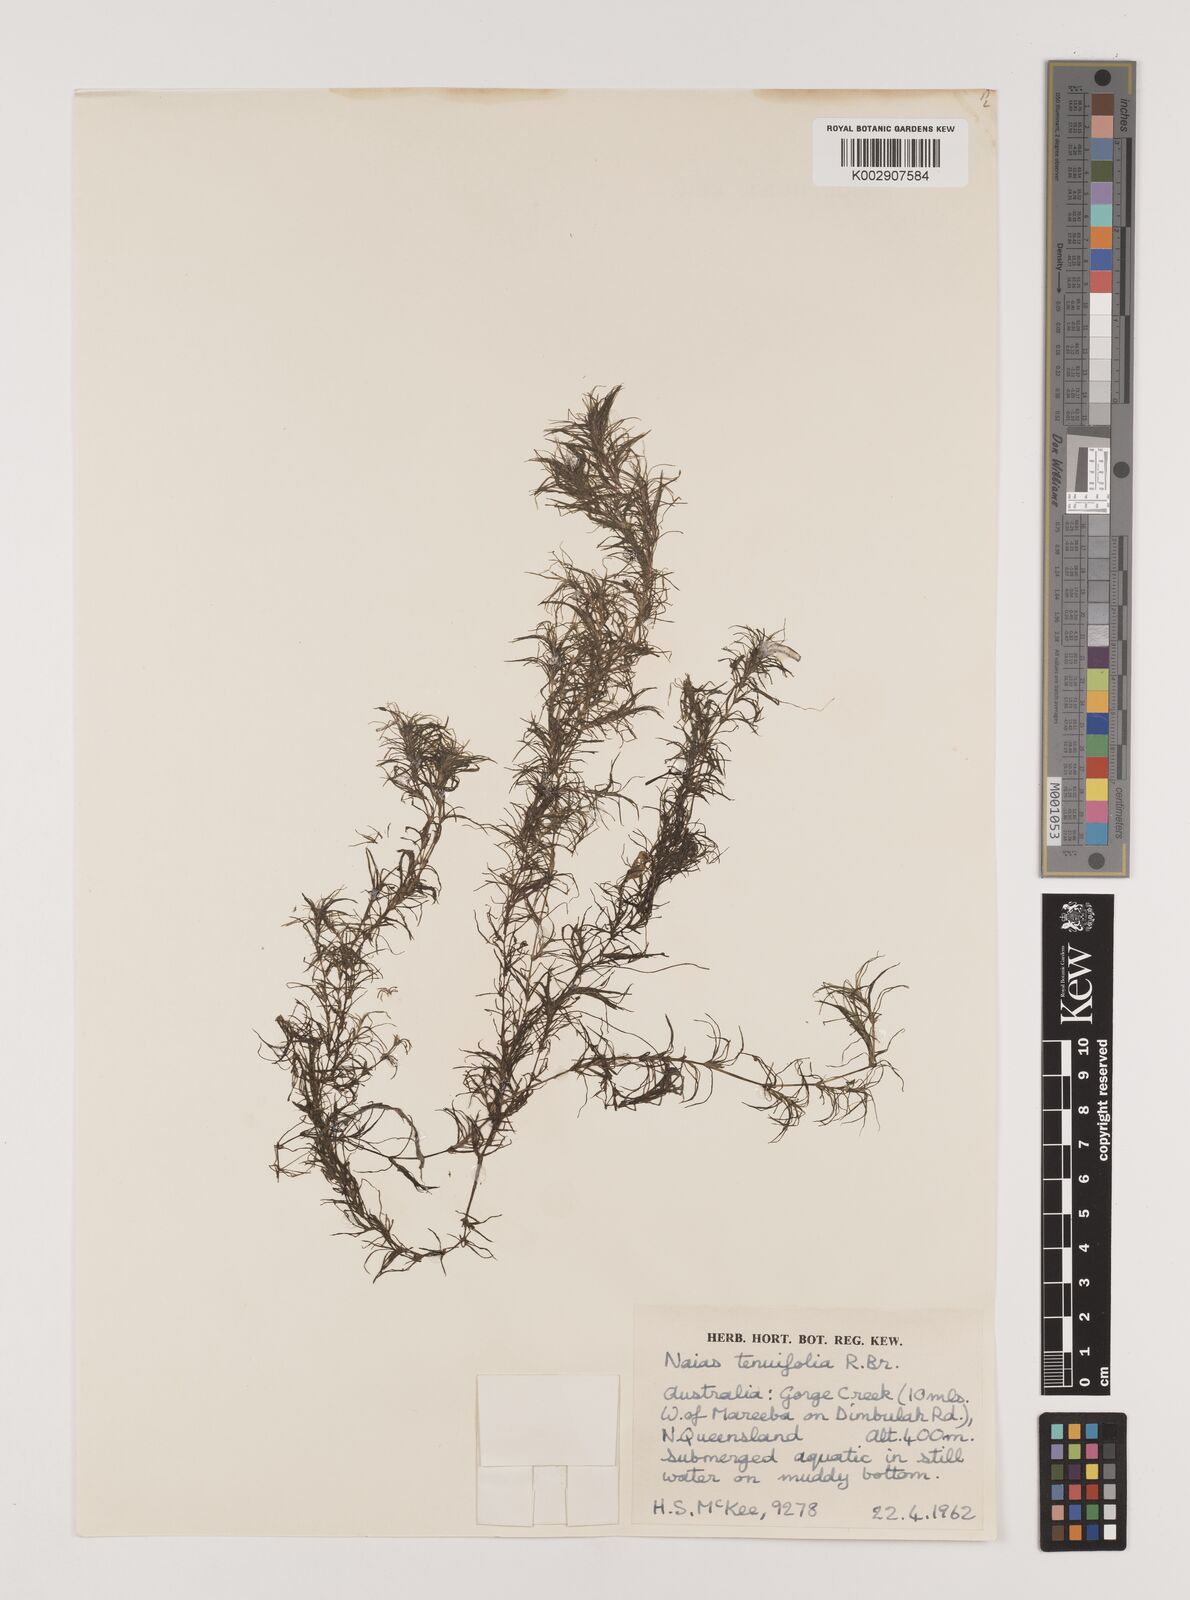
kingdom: Plantae
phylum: Tracheophyta
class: Liliopsida
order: Alismatales
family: Hydrocharitaceae
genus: Najas
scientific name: Najas tenuifolia
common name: Thin-leaved naiad
